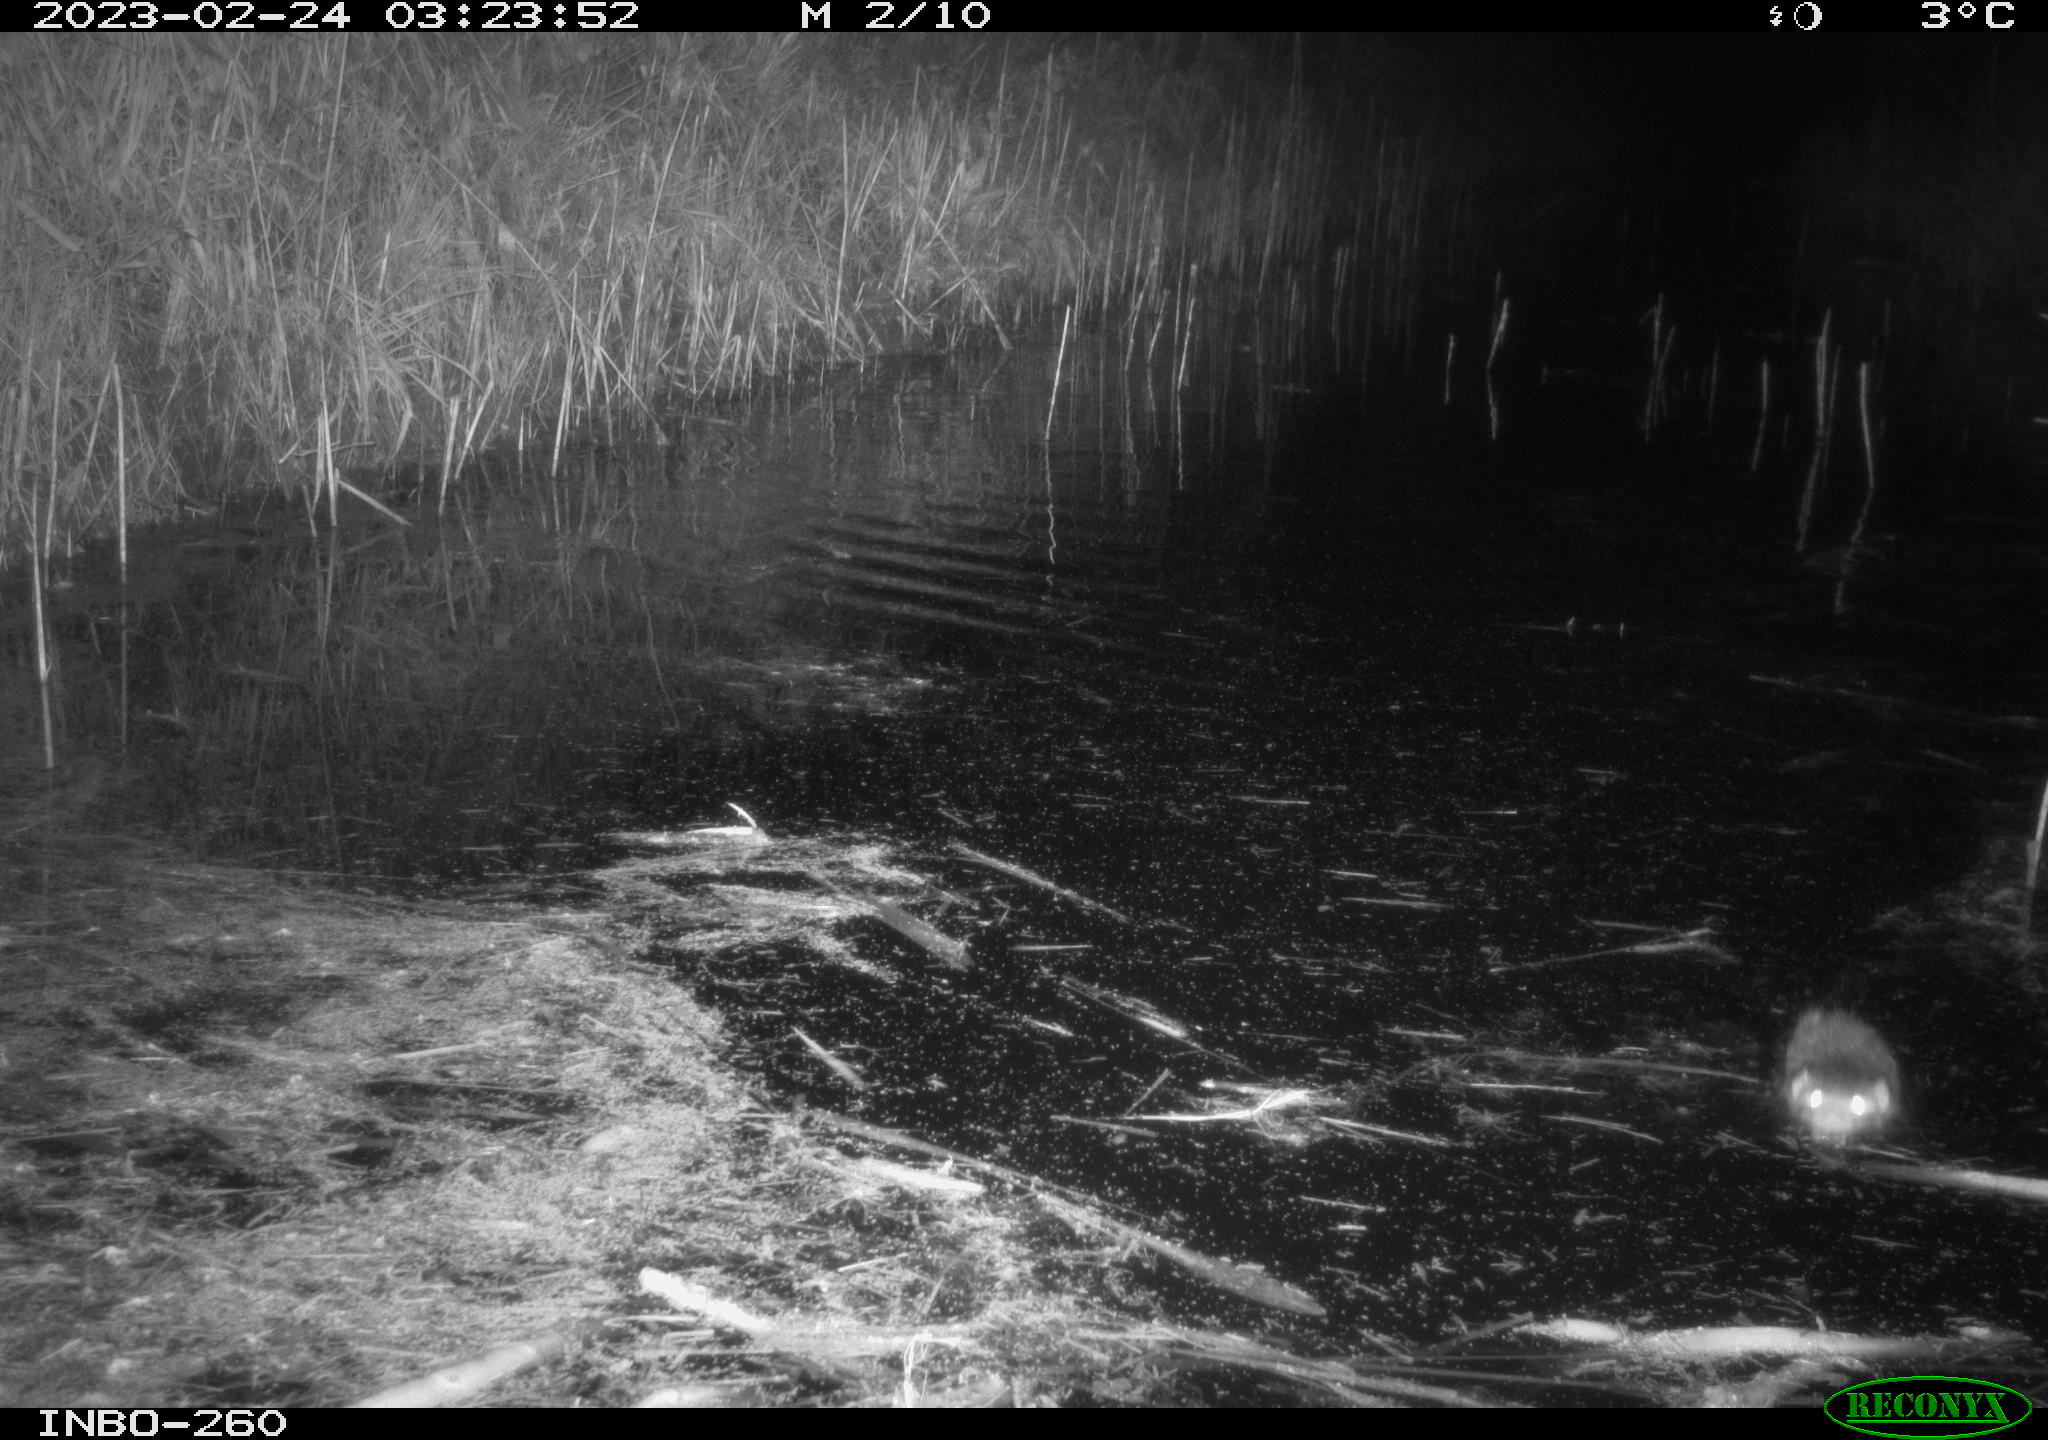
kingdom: Animalia
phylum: Chordata
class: Mammalia
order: Rodentia
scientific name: Rodentia
